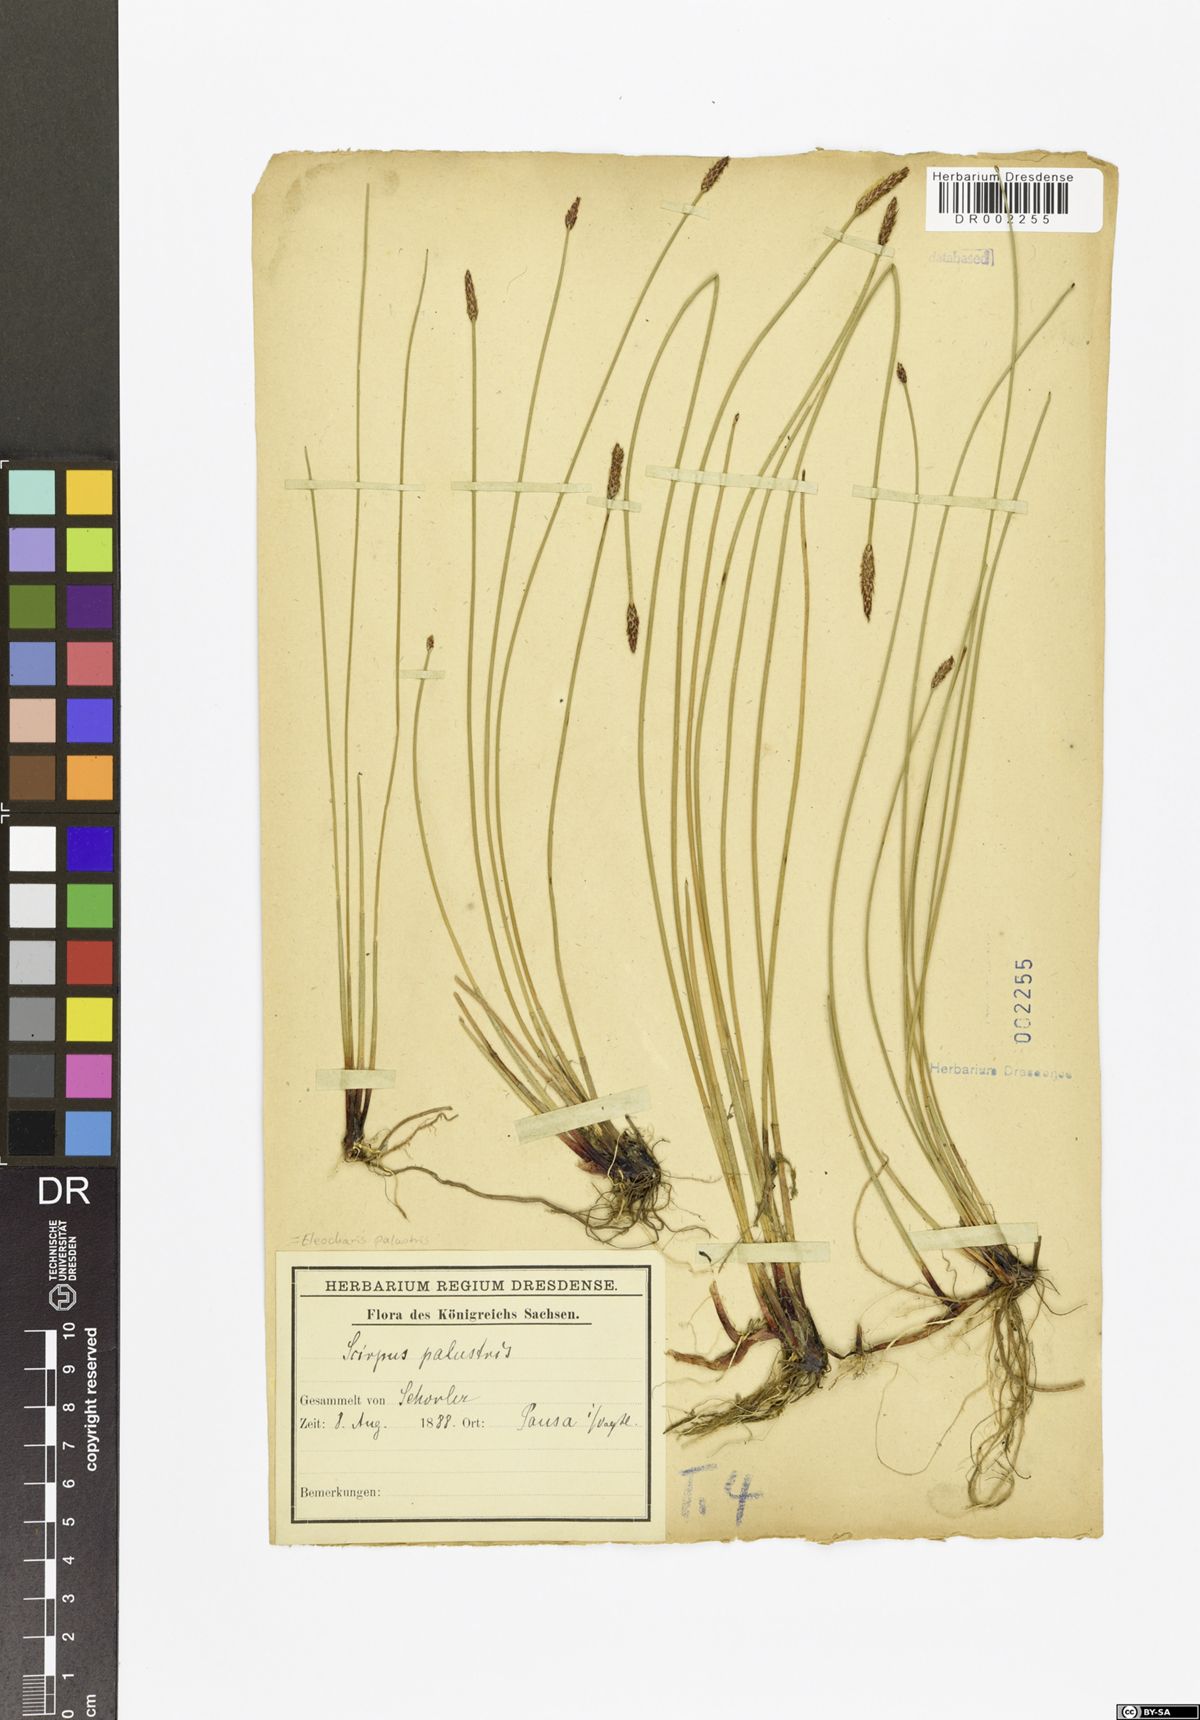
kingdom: Plantae
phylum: Tracheophyta
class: Liliopsida
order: Poales
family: Cyperaceae
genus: Eleocharis
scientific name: Eleocharis palustris
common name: Common spike-rush
